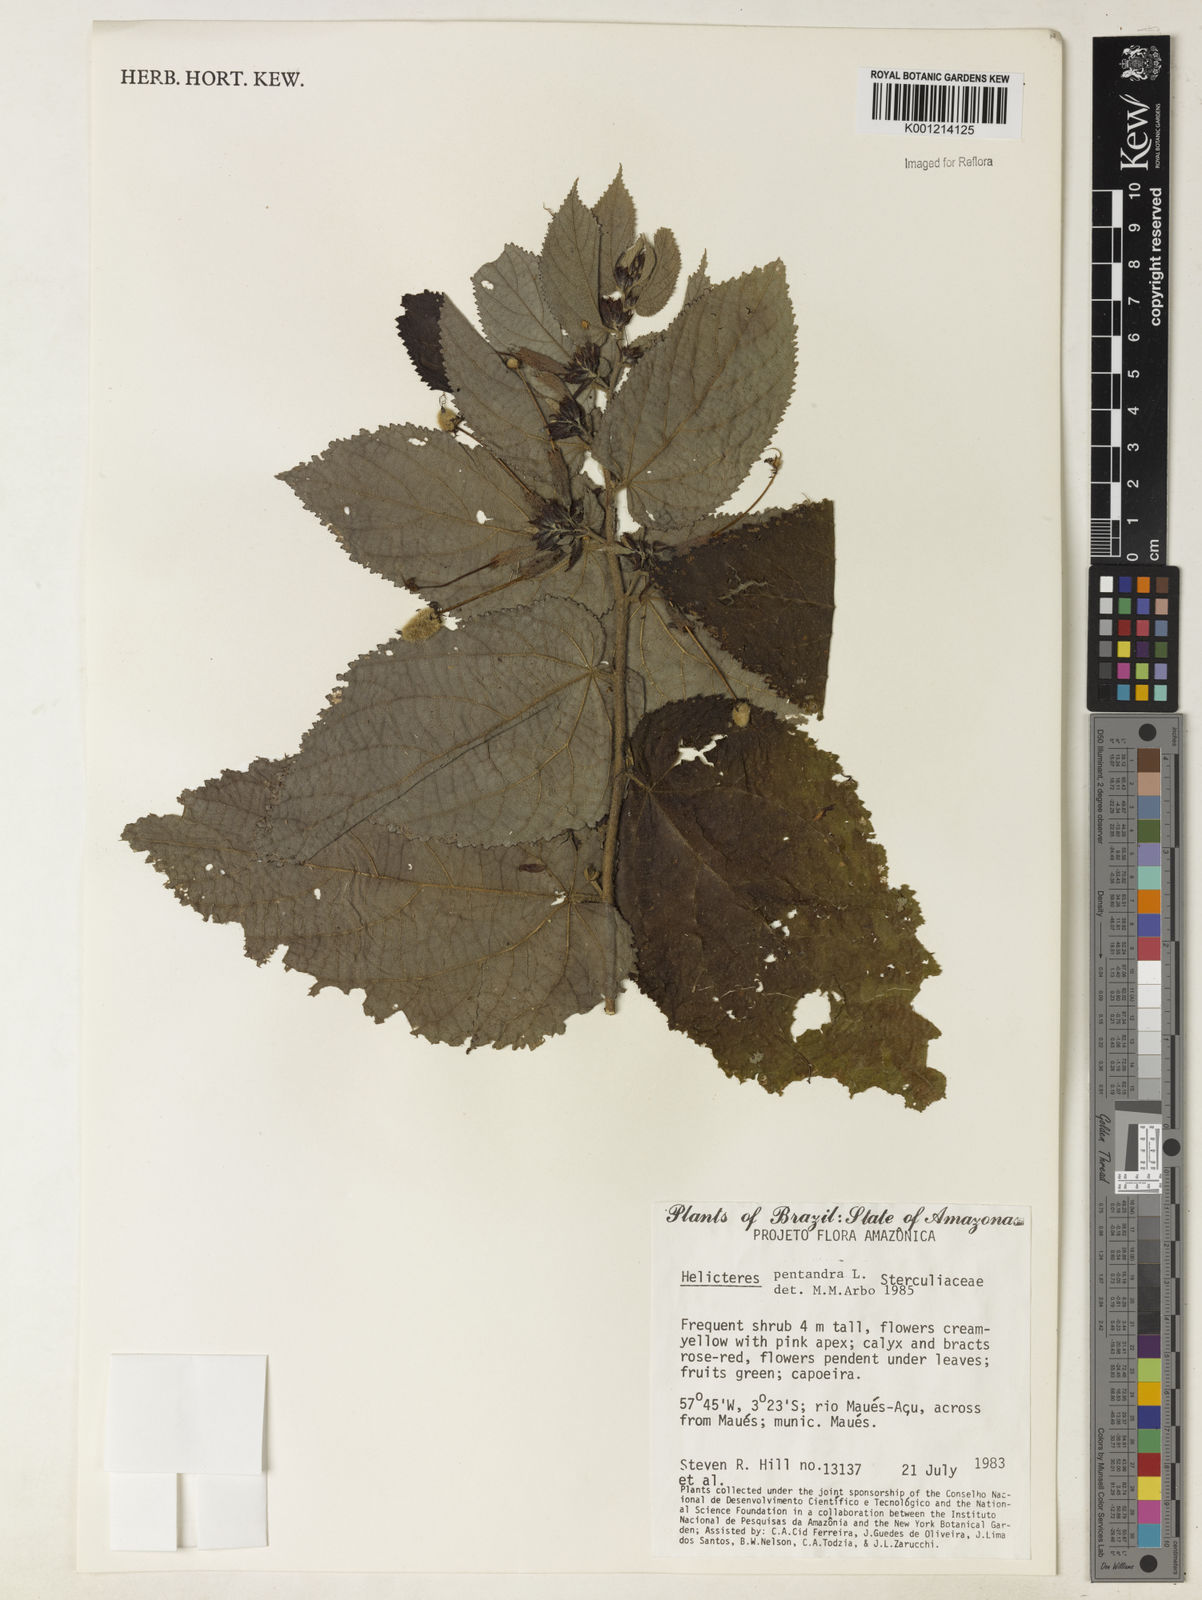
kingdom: Plantae
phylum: Tracheophyta
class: Magnoliopsida
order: Malvales
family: Malvaceae
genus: Helicteres
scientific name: Helicteres pentandra
